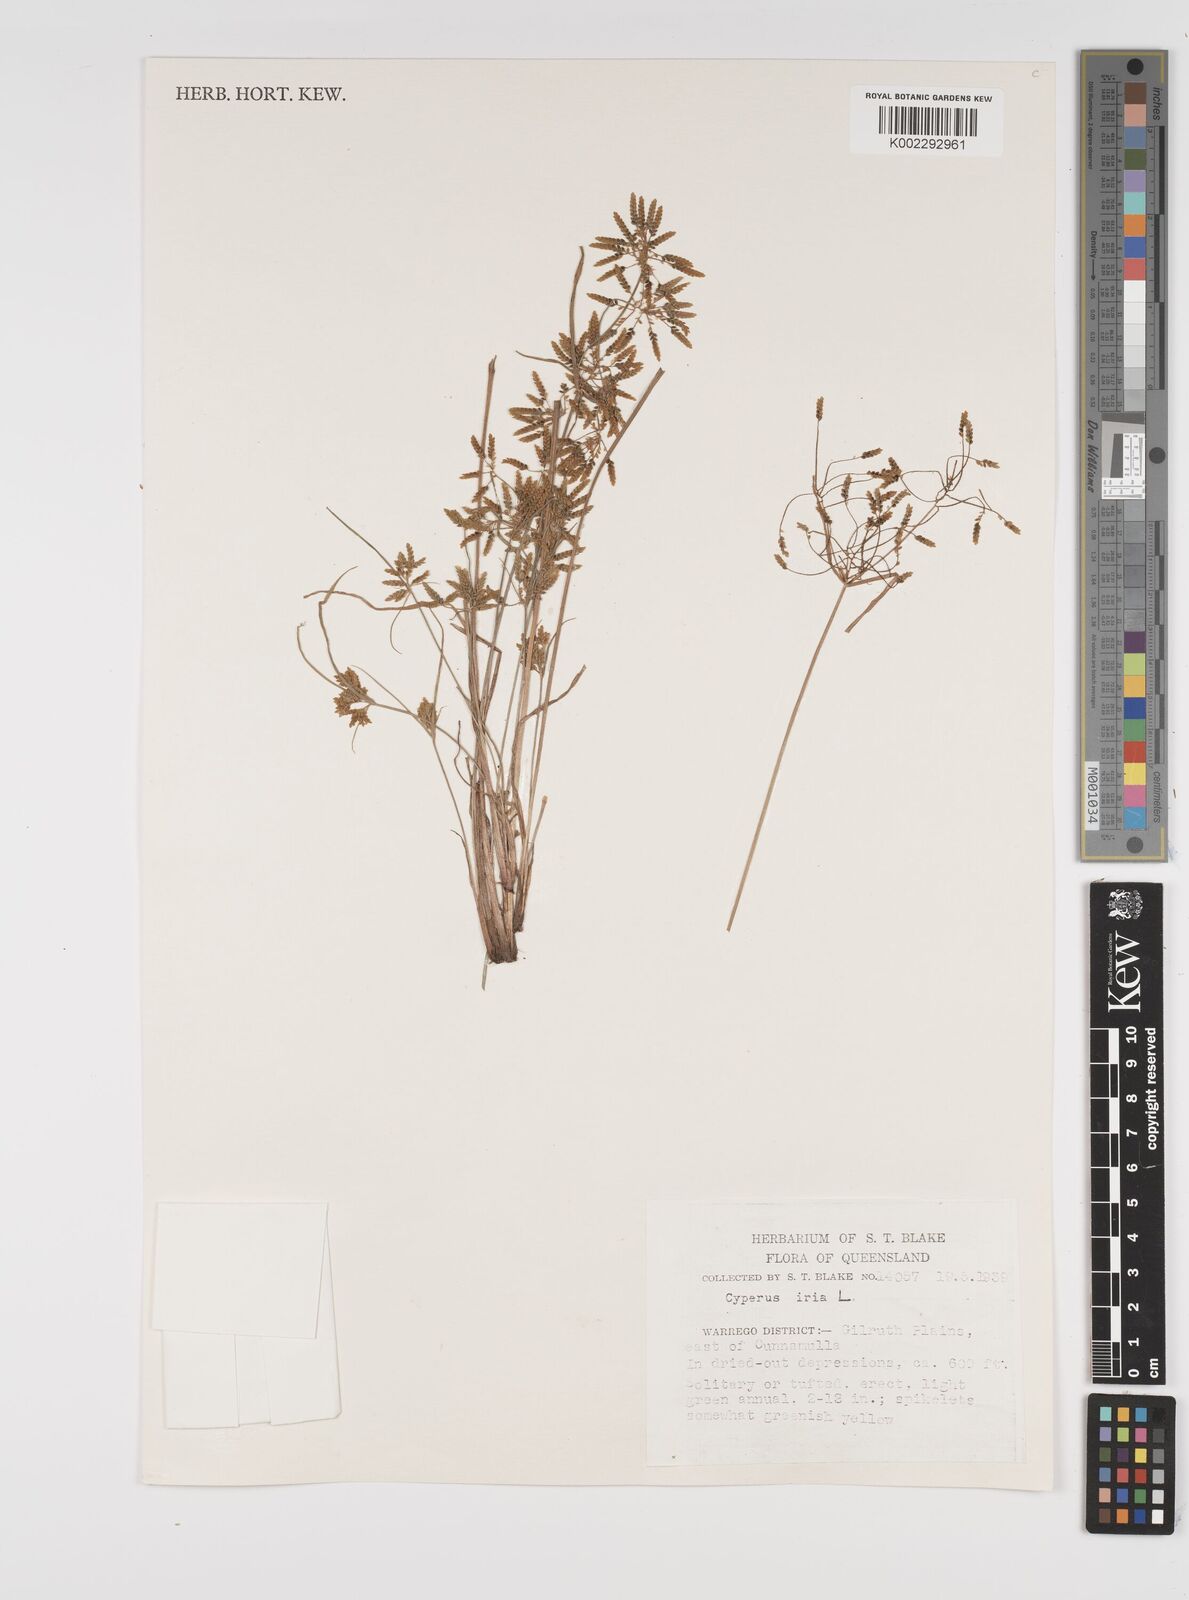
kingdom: Plantae
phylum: Tracheophyta
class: Liliopsida
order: Poales
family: Cyperaceae
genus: Cyperus
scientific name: Cyperus iria
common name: Ricefield flatsedge
